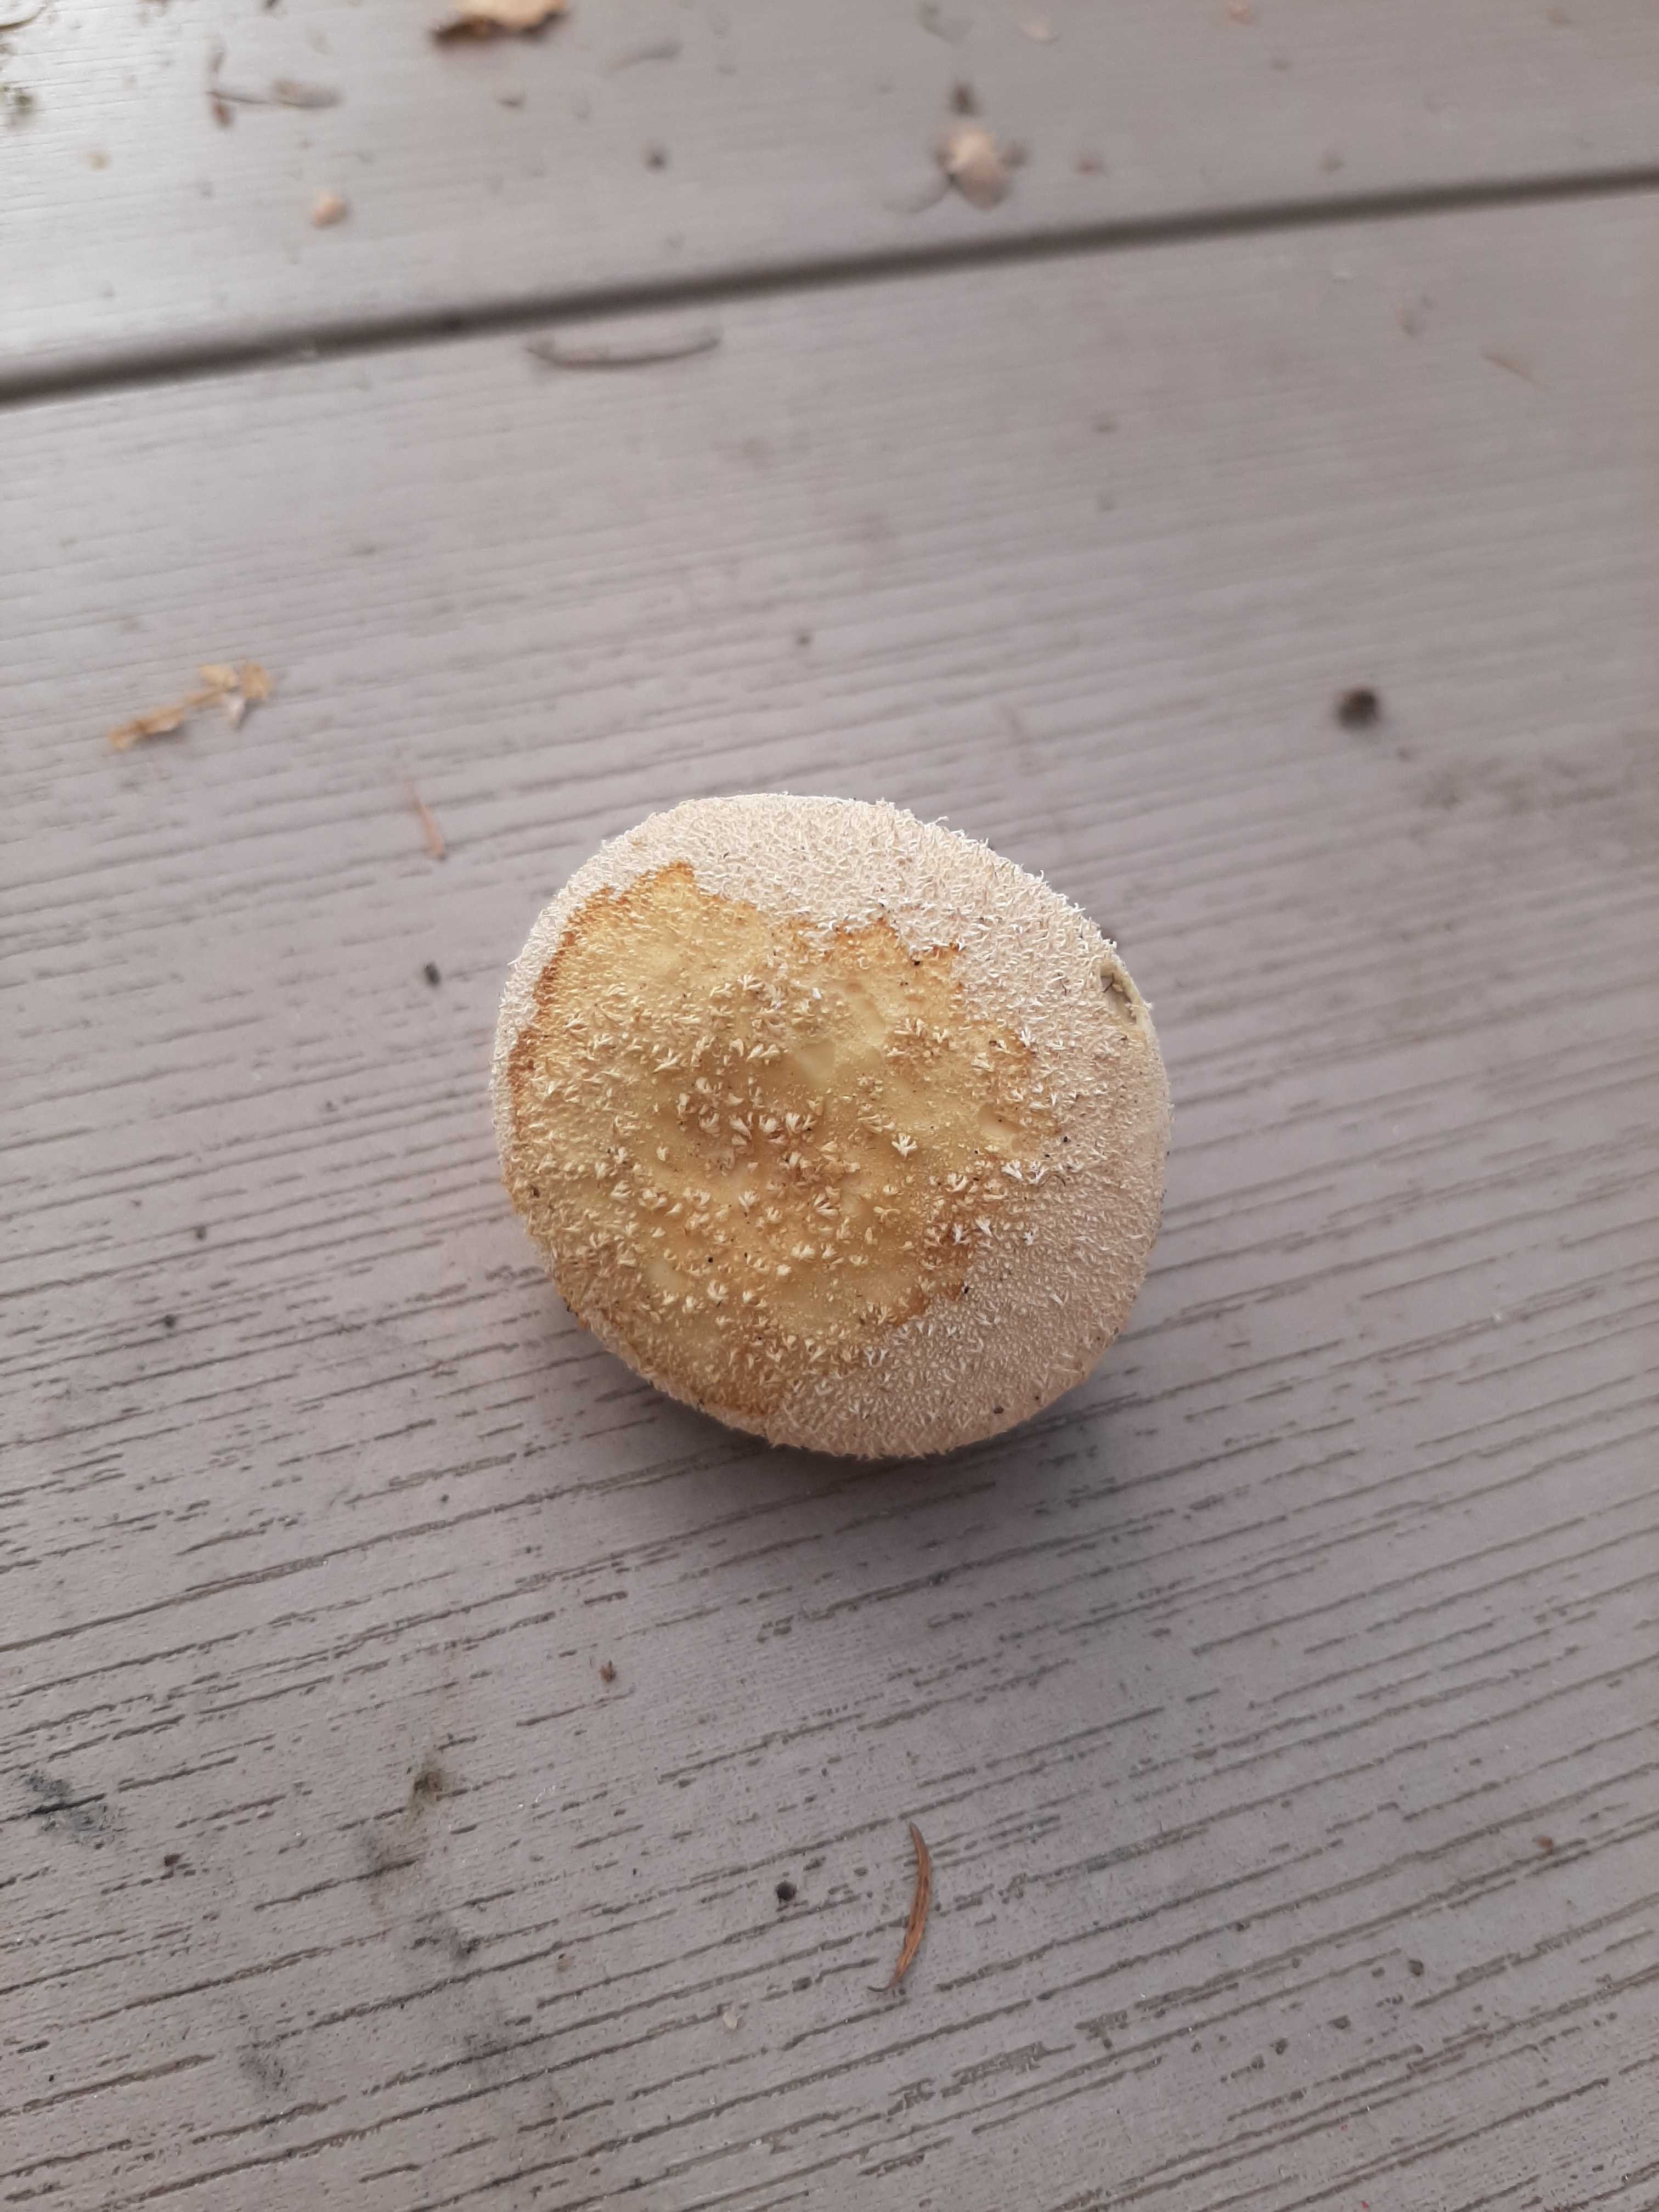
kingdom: Fungi
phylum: Basidiomycota
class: Agaricomycetes
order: Agaricales
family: Lycoperdaceae
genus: Lycoperdon
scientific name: Lycoperdon pratense
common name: flad støvbold
